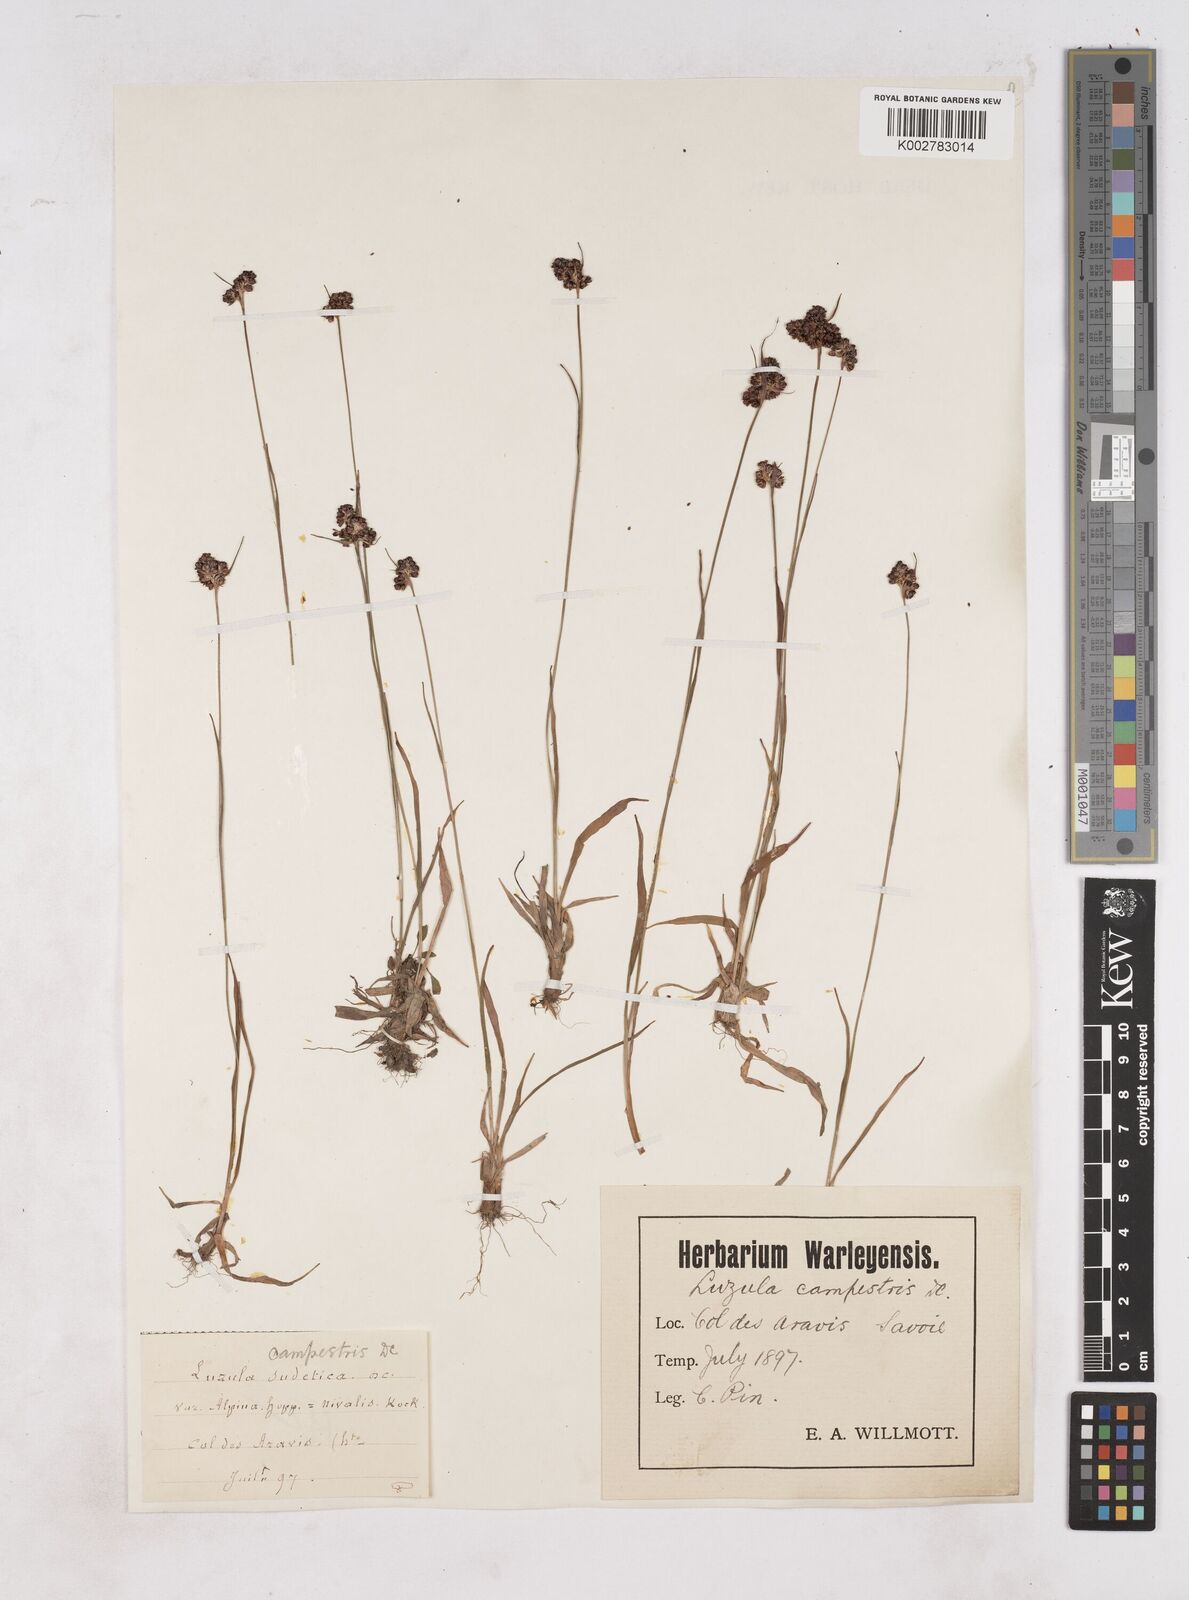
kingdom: Plantae
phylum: Tracheophyta
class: Liliopsida
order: Poales
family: Juncaceae
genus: Luzula
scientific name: Luzula campestris
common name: Field wood-rush
